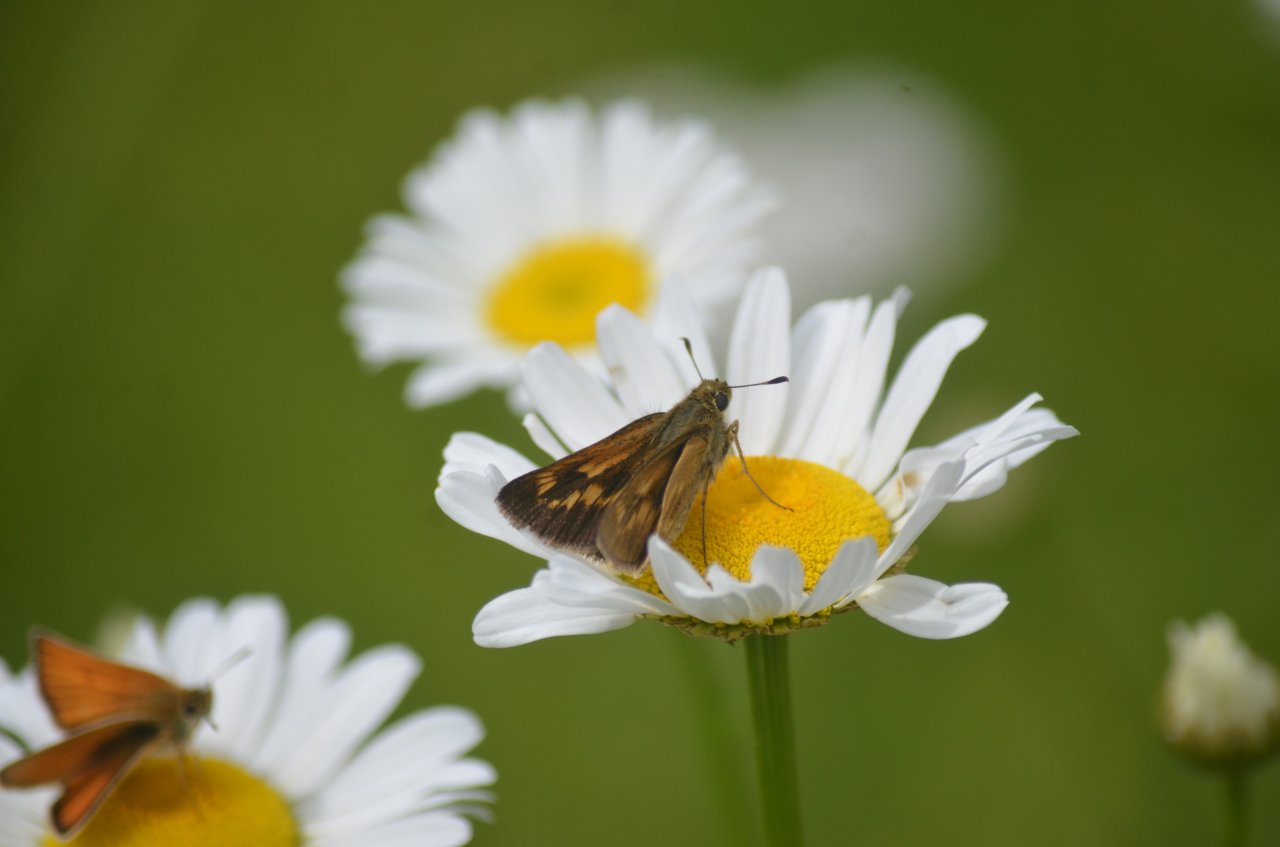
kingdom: Animalia
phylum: Arthropoda
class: Insecta
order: Lepidoptera
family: Hesperiidae
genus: Polites
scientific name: Polites
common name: Long Dash Skipper
